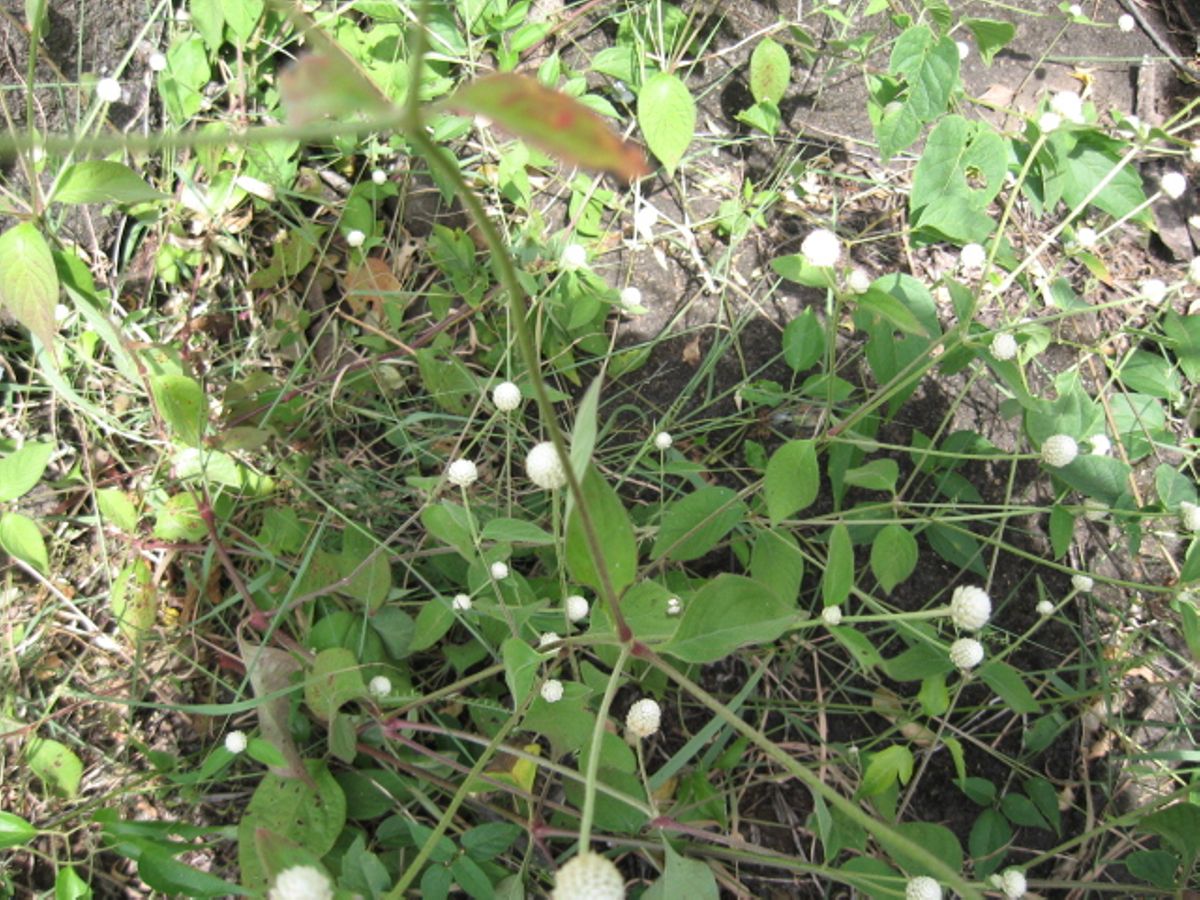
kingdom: Plantae
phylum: Tracheophyta
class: Magnoliopsida
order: Caryophyllales
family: Amaranthaceae
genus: Alternanthera
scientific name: Alternanthera laguroides
